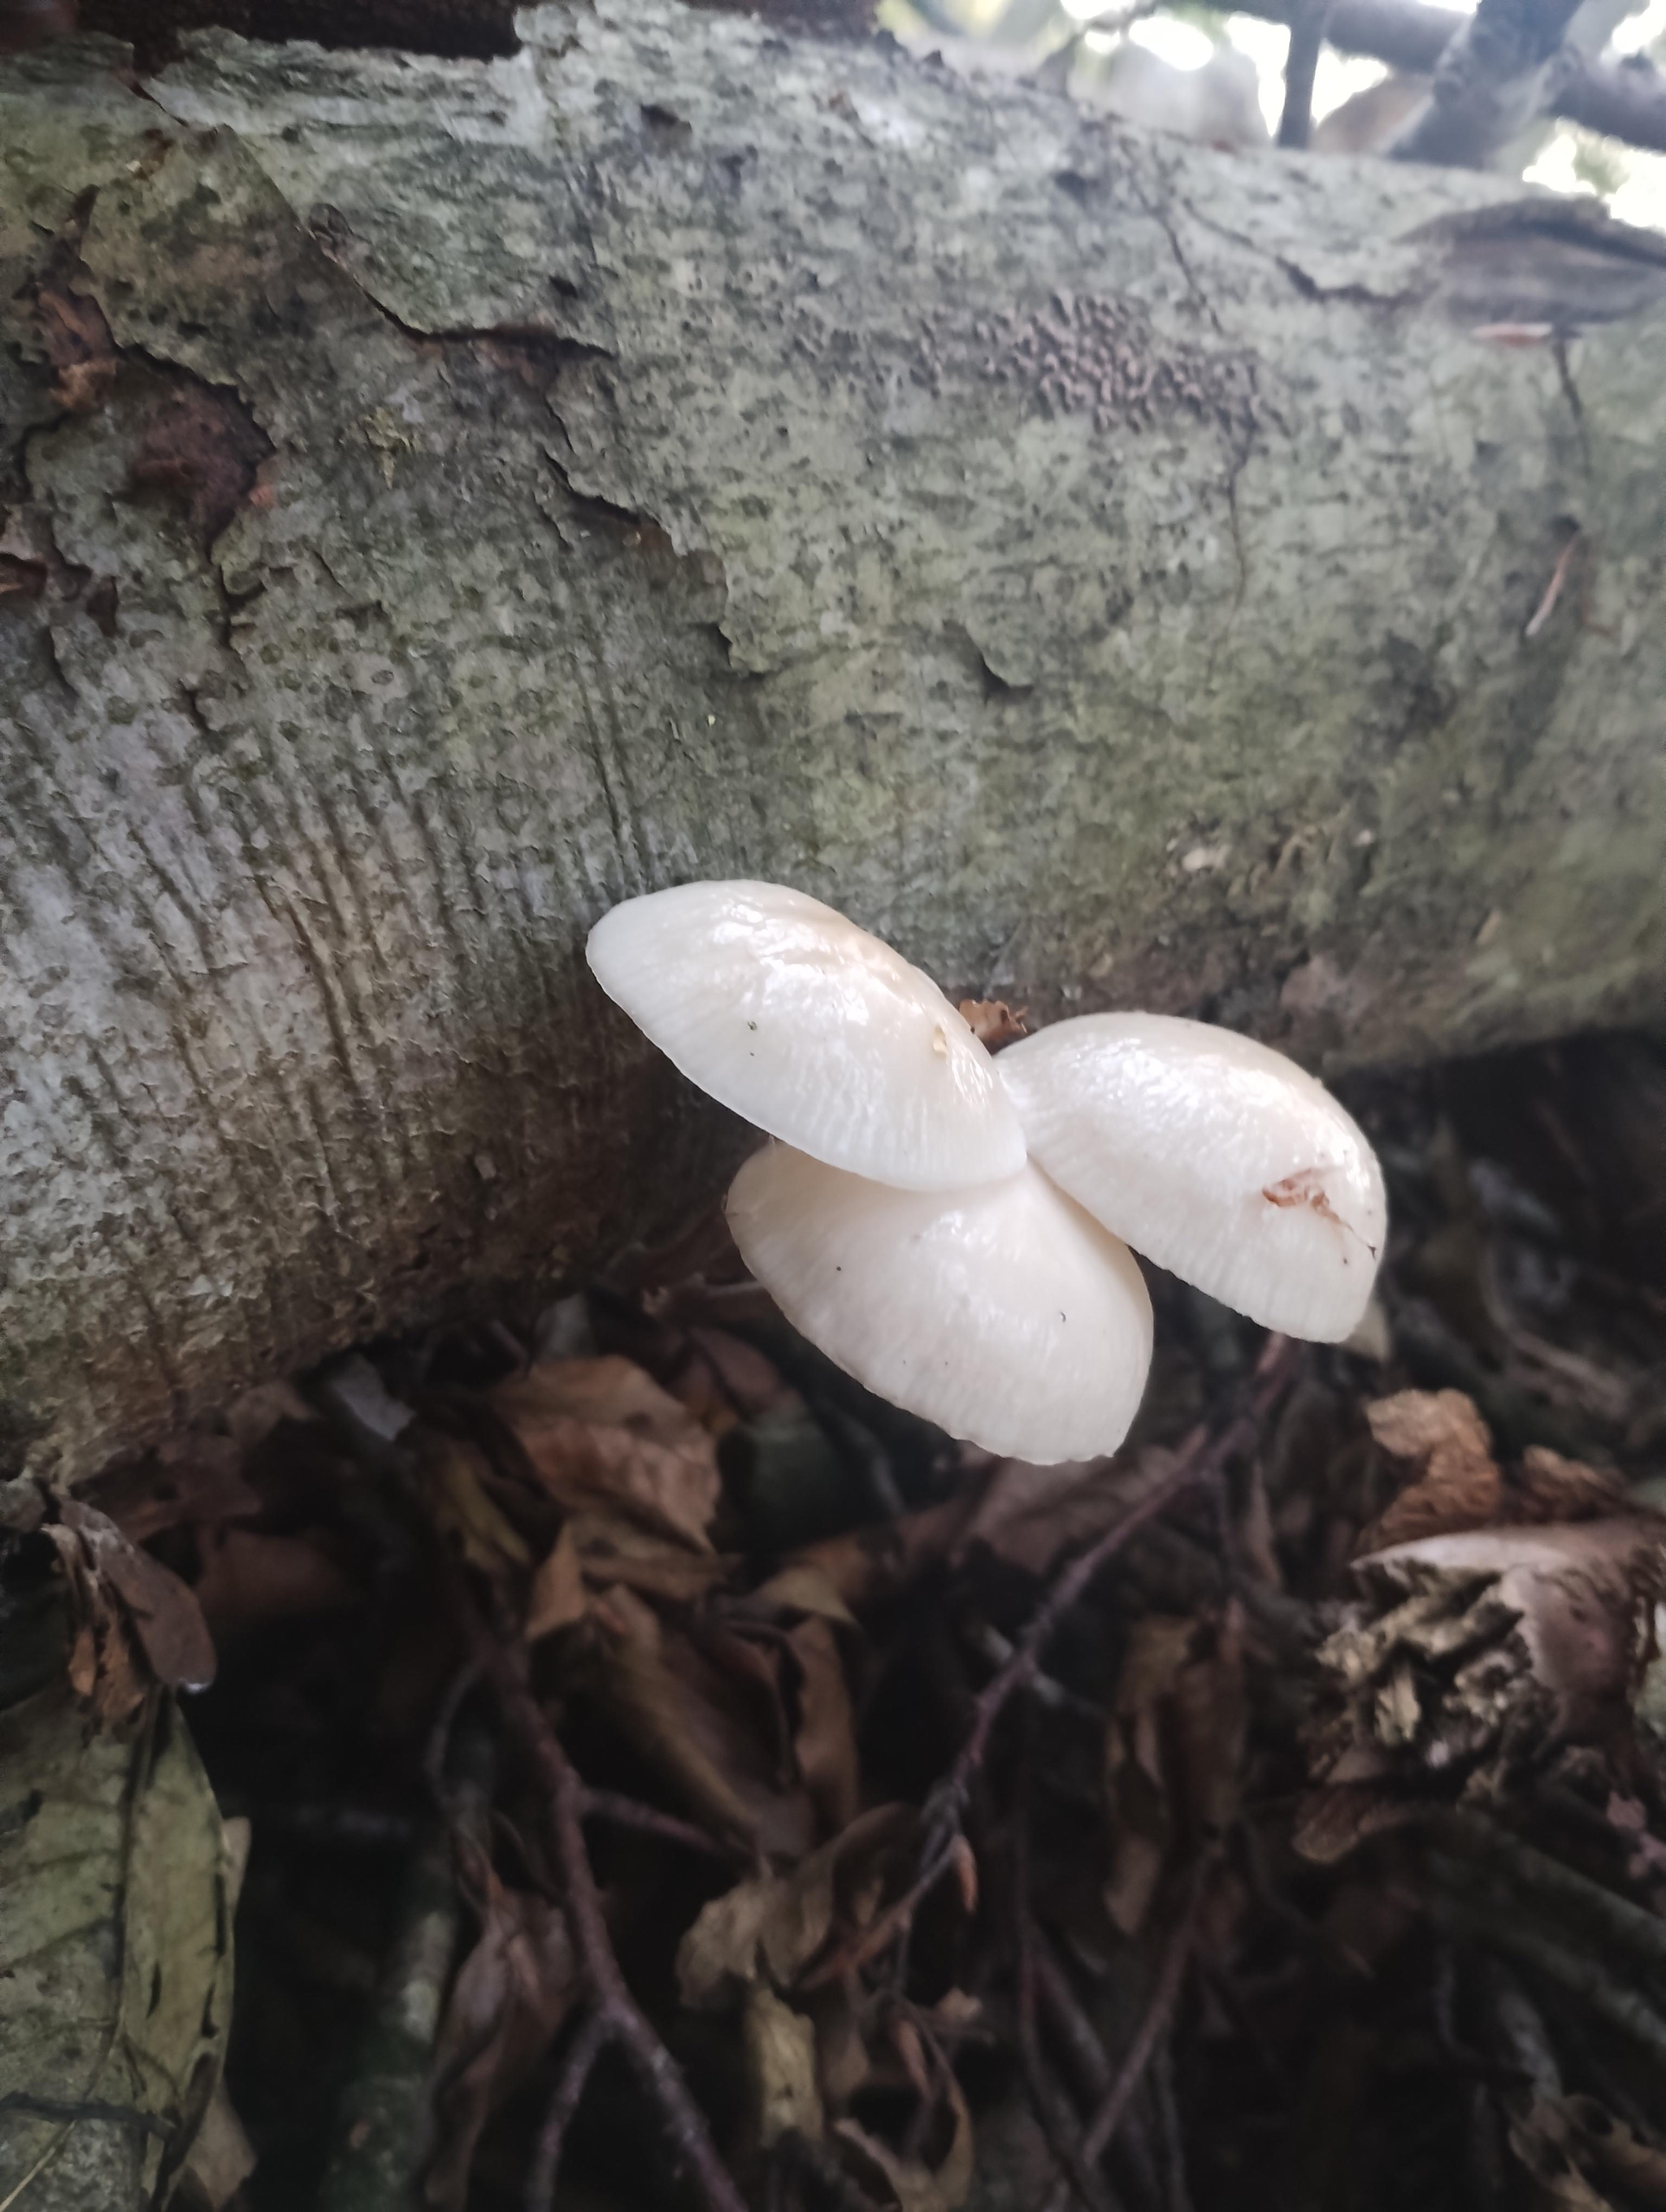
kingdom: Fungi
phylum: Basidiomycota
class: Agaricomycetes
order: Agaricales
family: Physalacriaceae
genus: Mucidula
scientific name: Mucidula mucida
